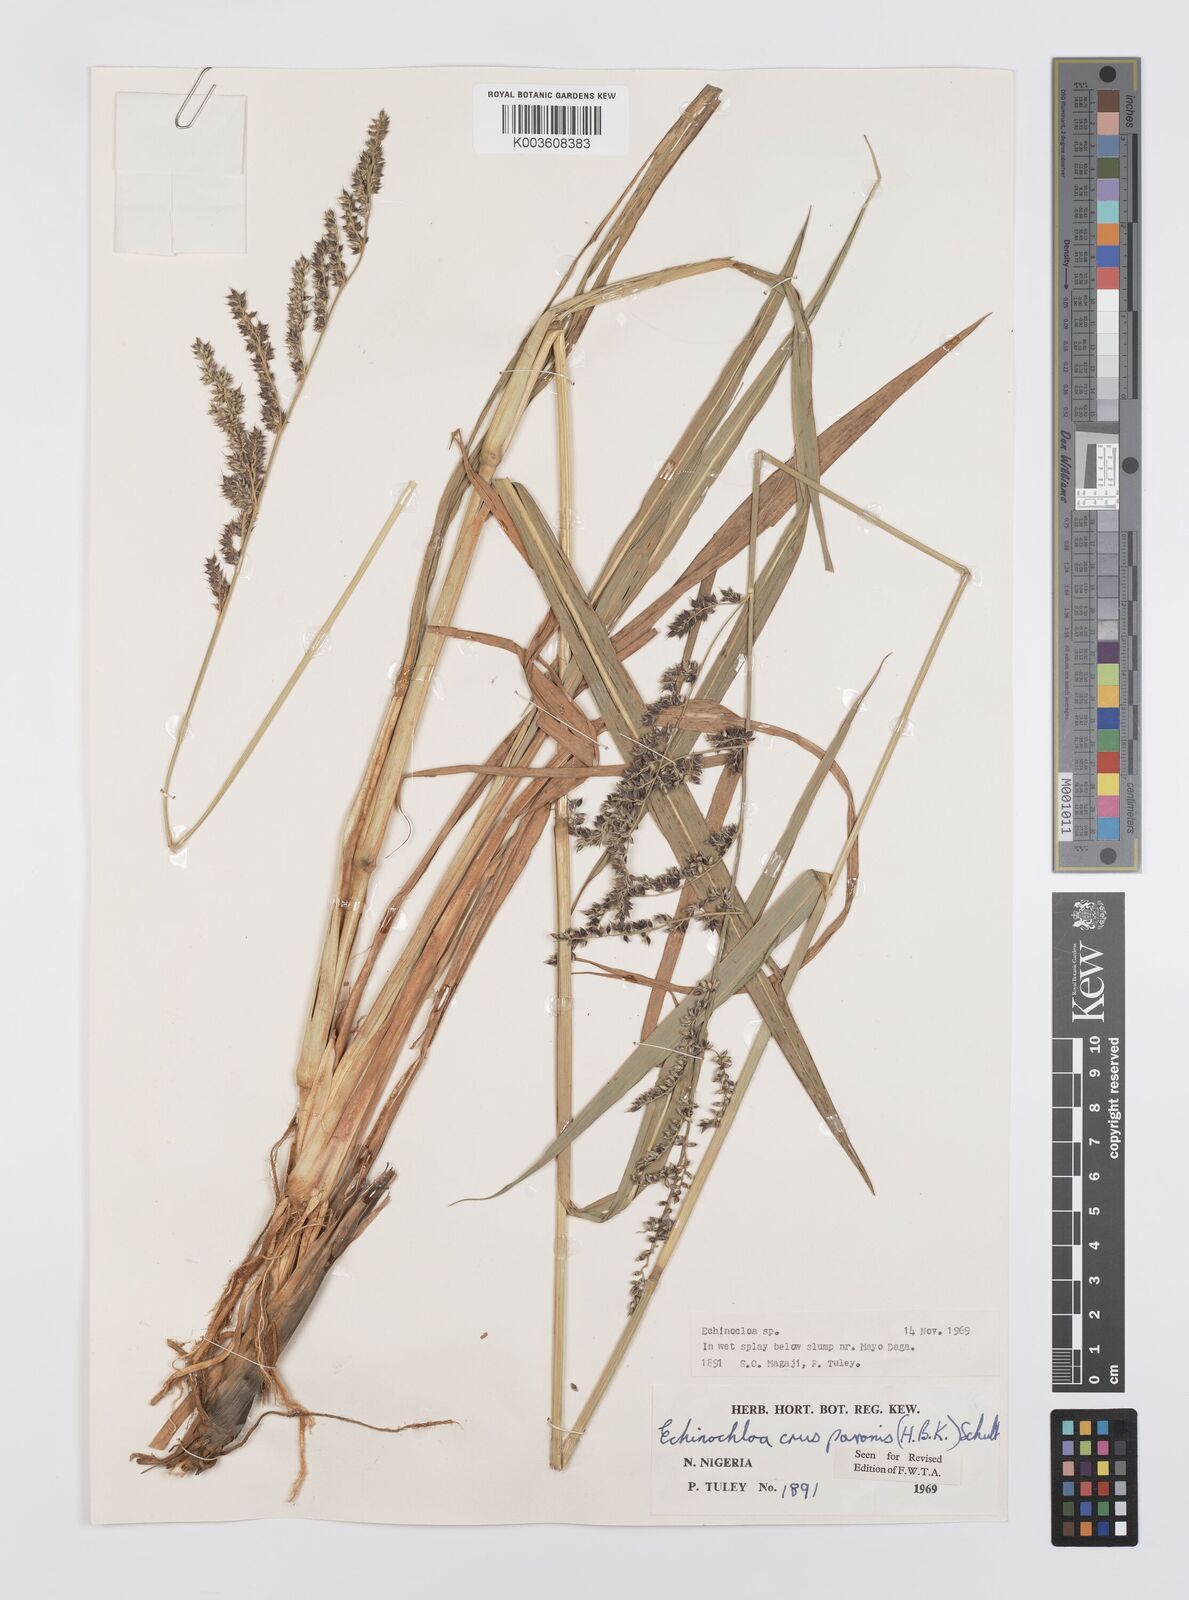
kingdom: Plantae
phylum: Tracheophyta
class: Liliopsida
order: Poales
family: Poaceae
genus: Echinochloa
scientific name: Echinochloa crus-pavonis
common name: Gulf cockspur grass
